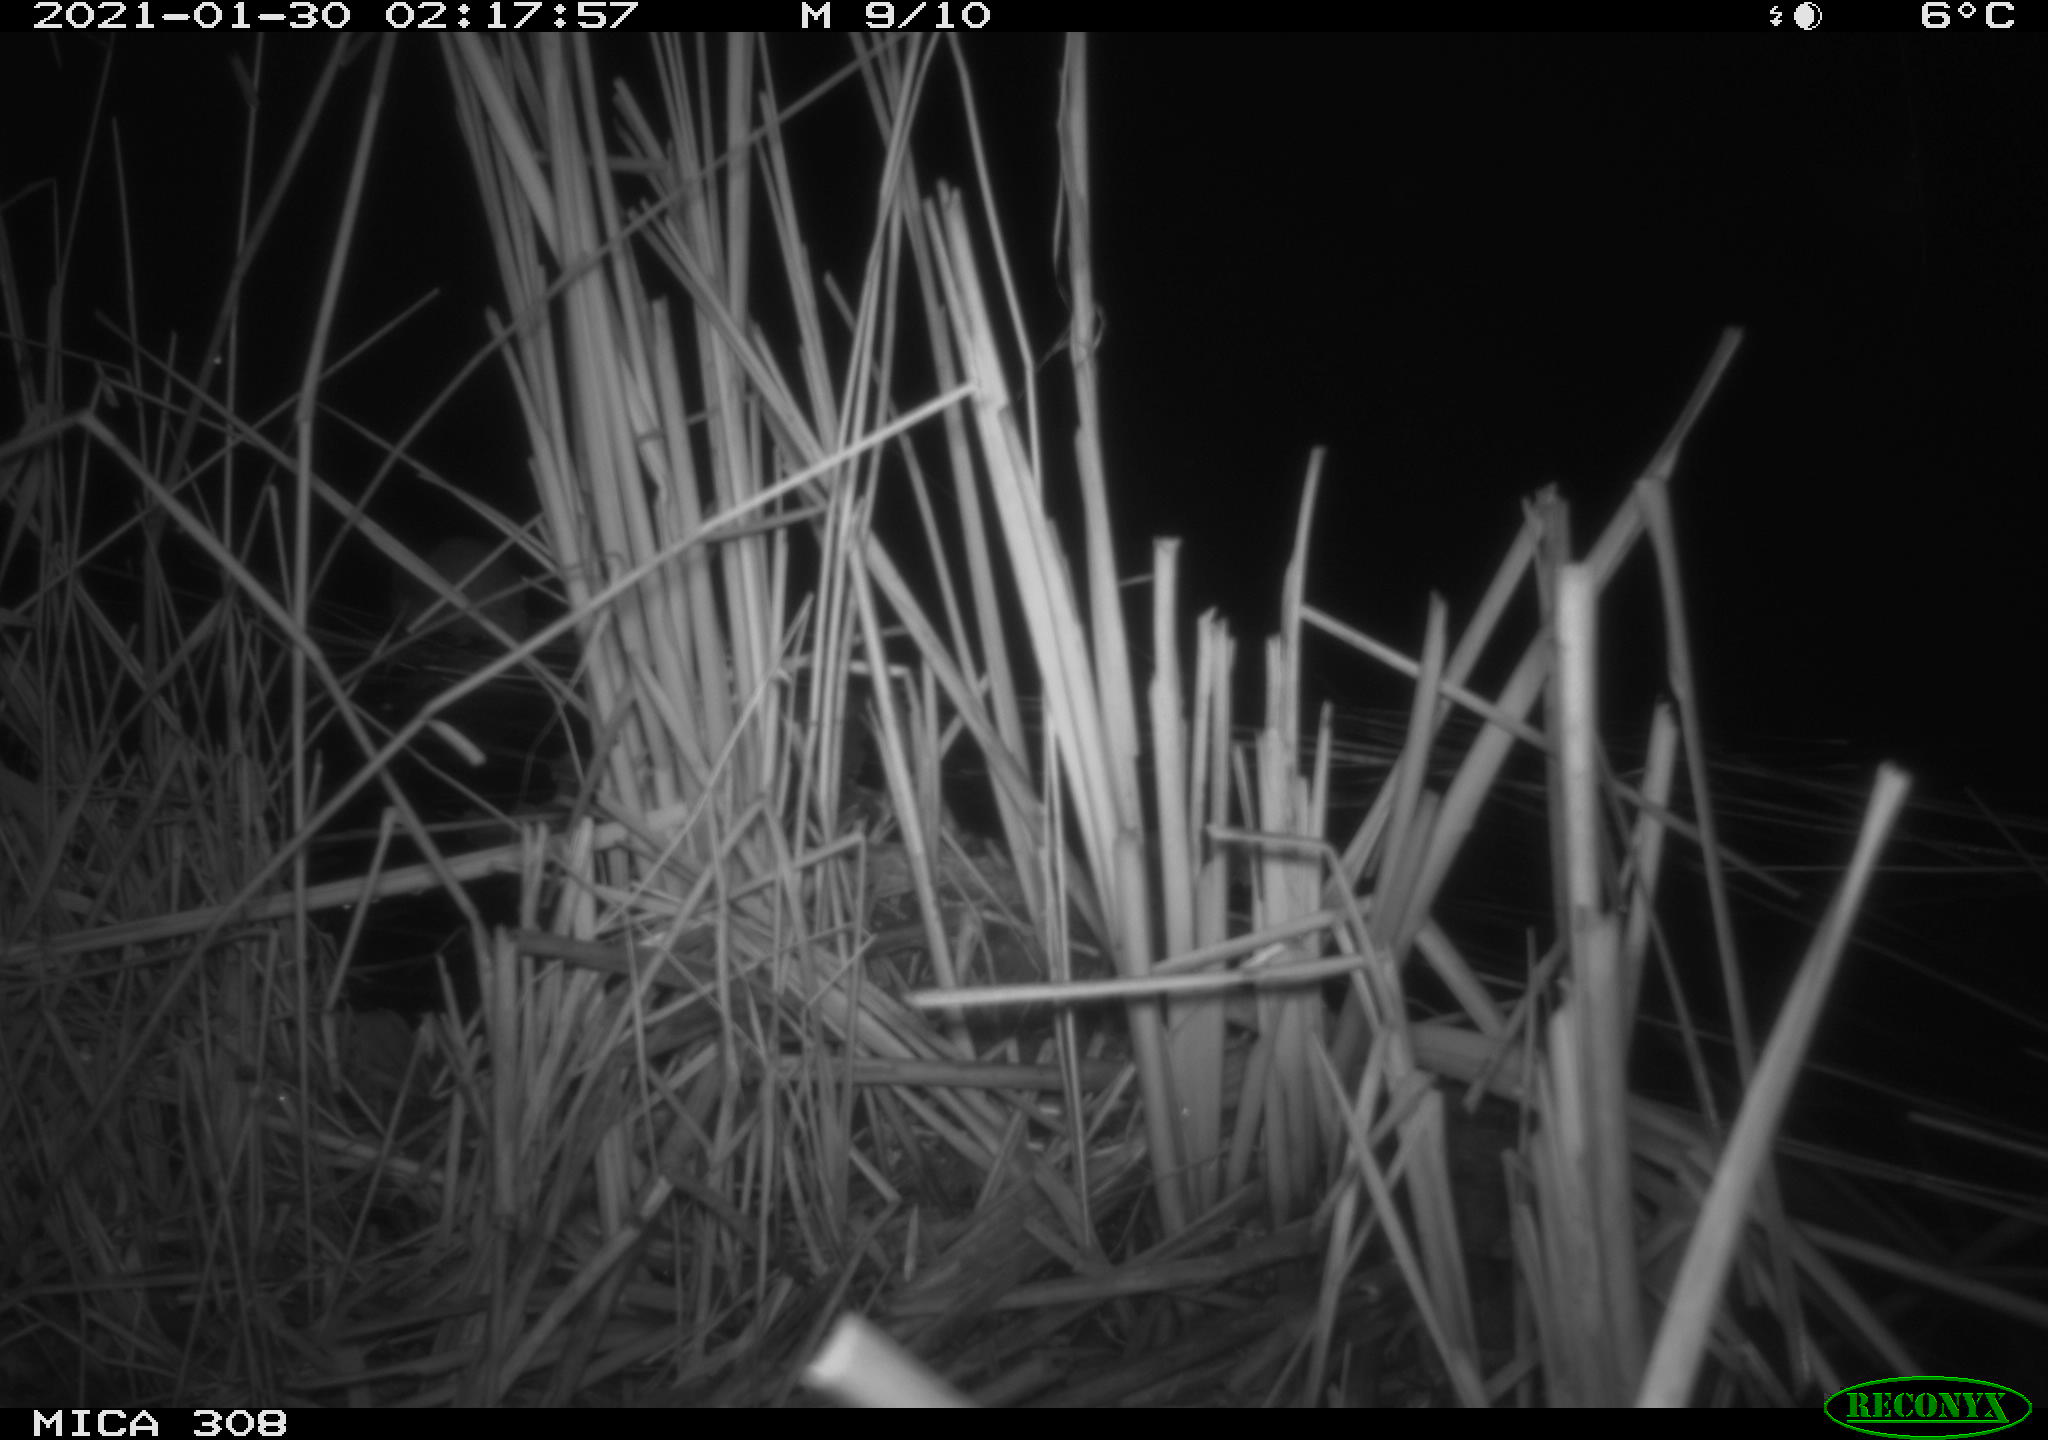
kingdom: Animalia
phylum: Chordata
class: Mammalia
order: Rodentia
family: Muridae
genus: Rattus
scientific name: Rattus norvegicus
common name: Brown rat
